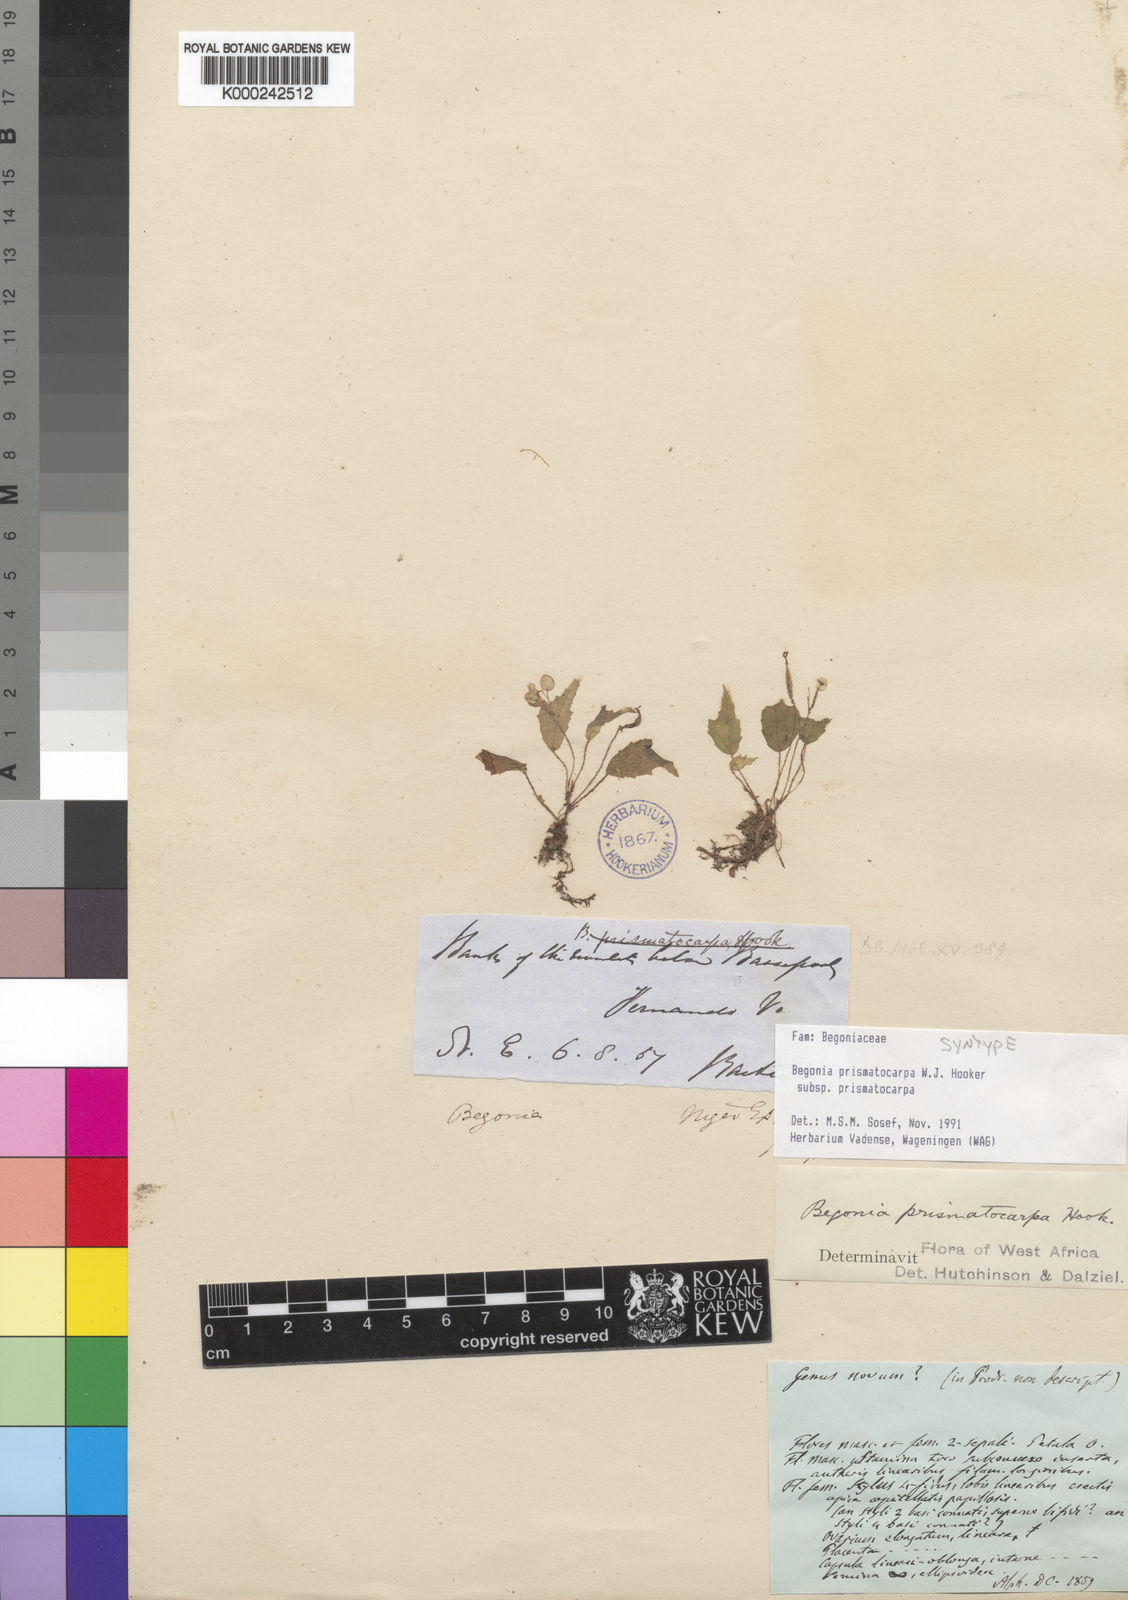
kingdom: Plantae
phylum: Tracheophyta
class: Magnoliopsida
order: Cucurbitales
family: Begoniaceae
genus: Begonia
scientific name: Begonia prismatocarpa
